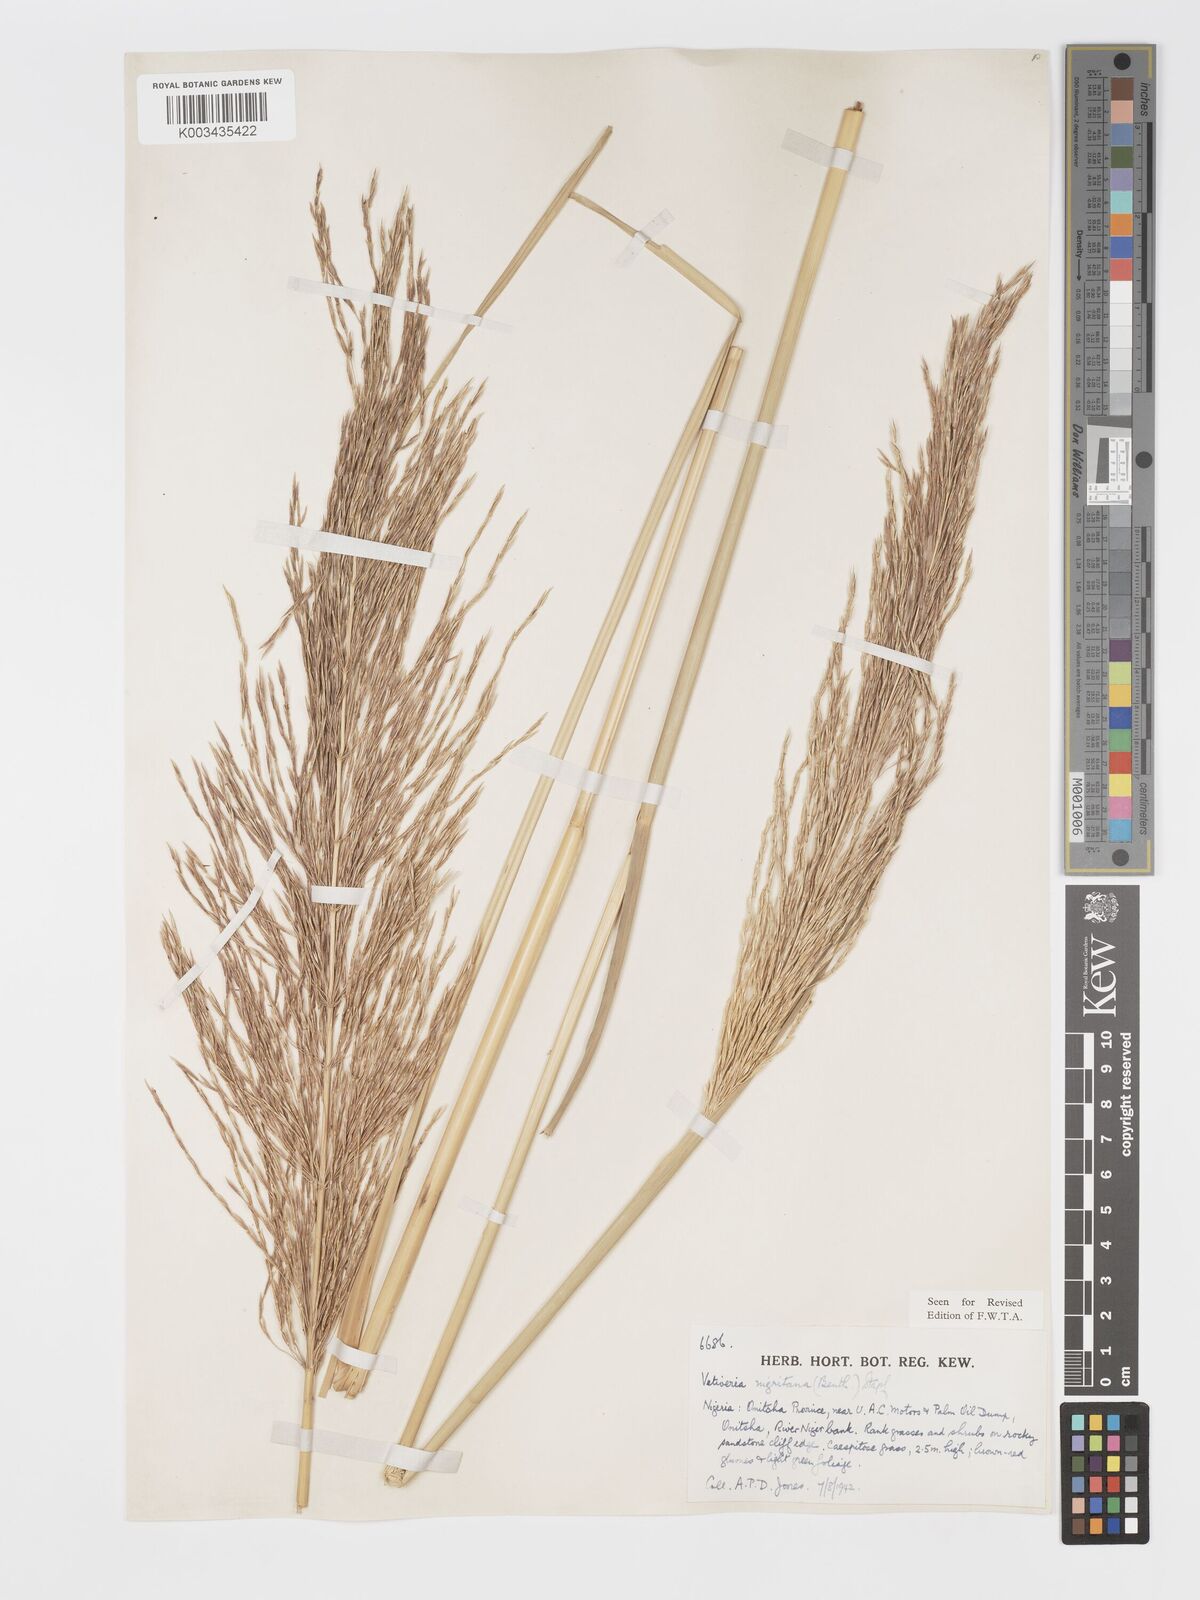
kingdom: Plantae
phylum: Tracheophyta
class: Liliopsida
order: Poales
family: Poaceae
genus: Chrysopogon
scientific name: Chrysopogon nigritanus
